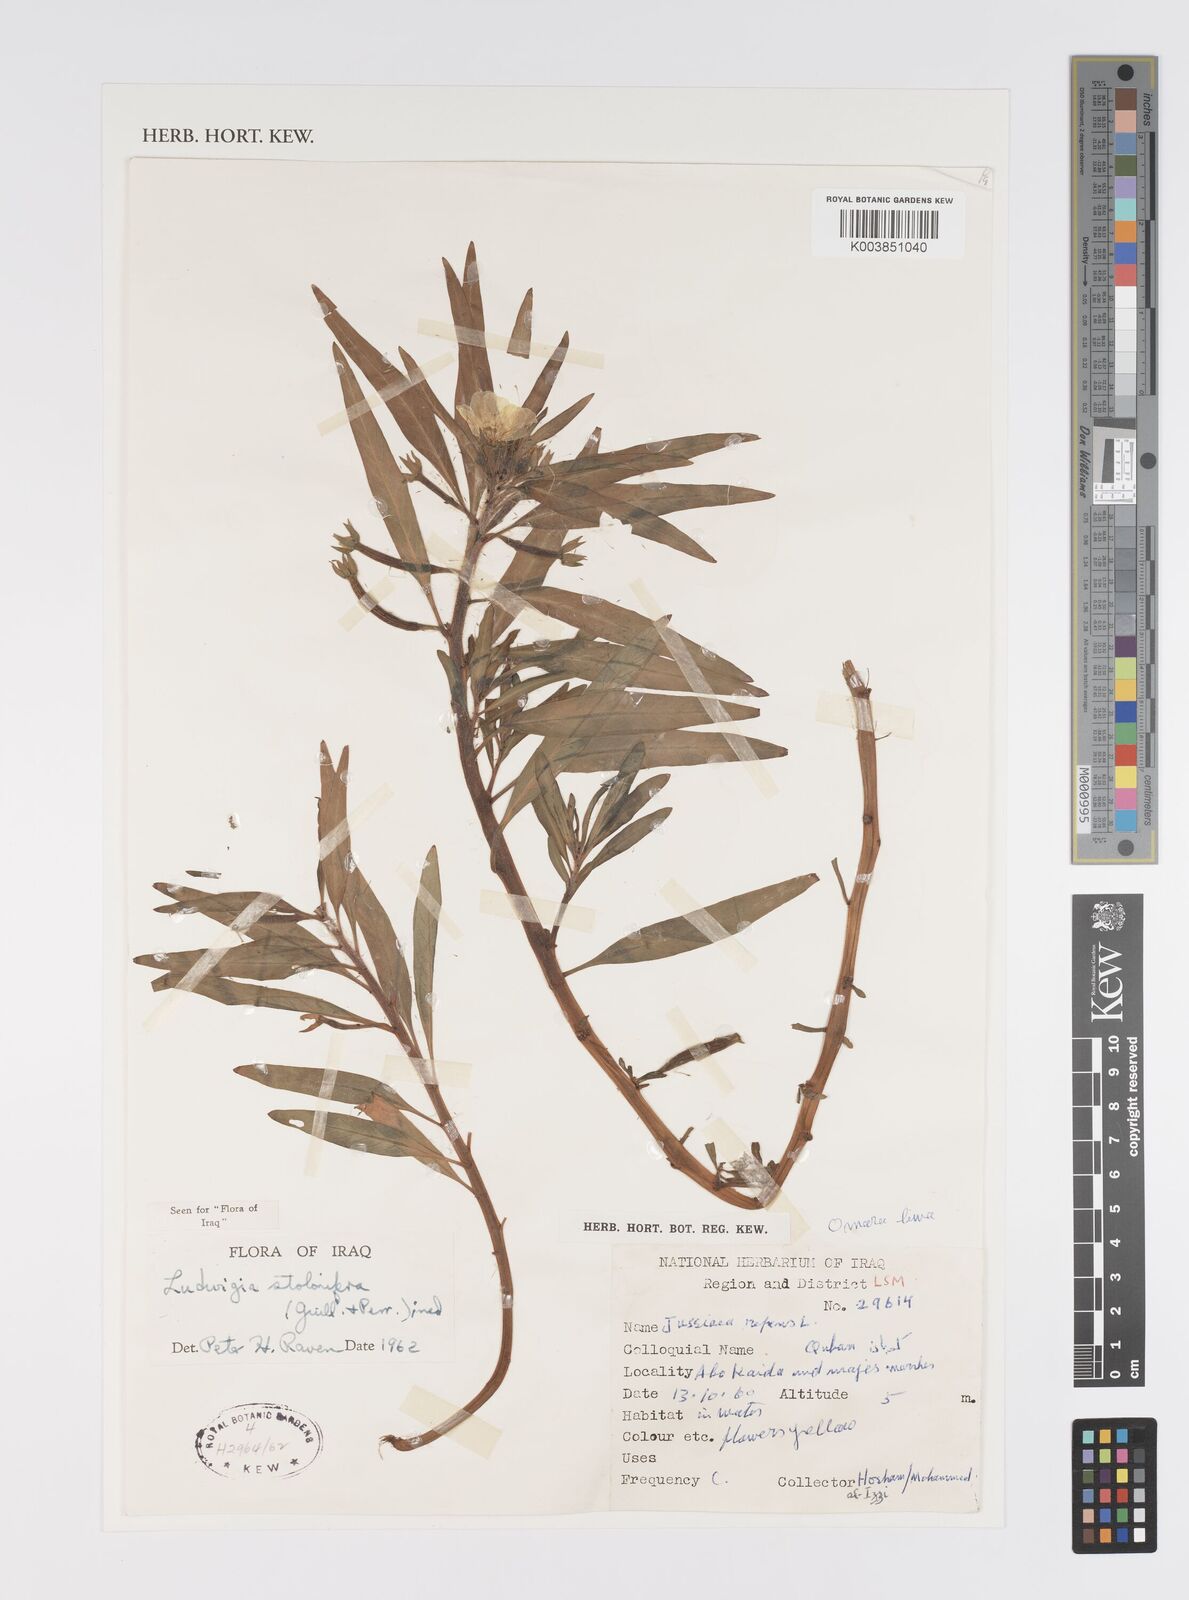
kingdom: Plantae
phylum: Tracheophyta
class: Magnoliopsida
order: Myrtales
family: Onagraceae
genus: Ludwigia
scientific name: Ludwigia adscendens
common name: Creeping water primrose
